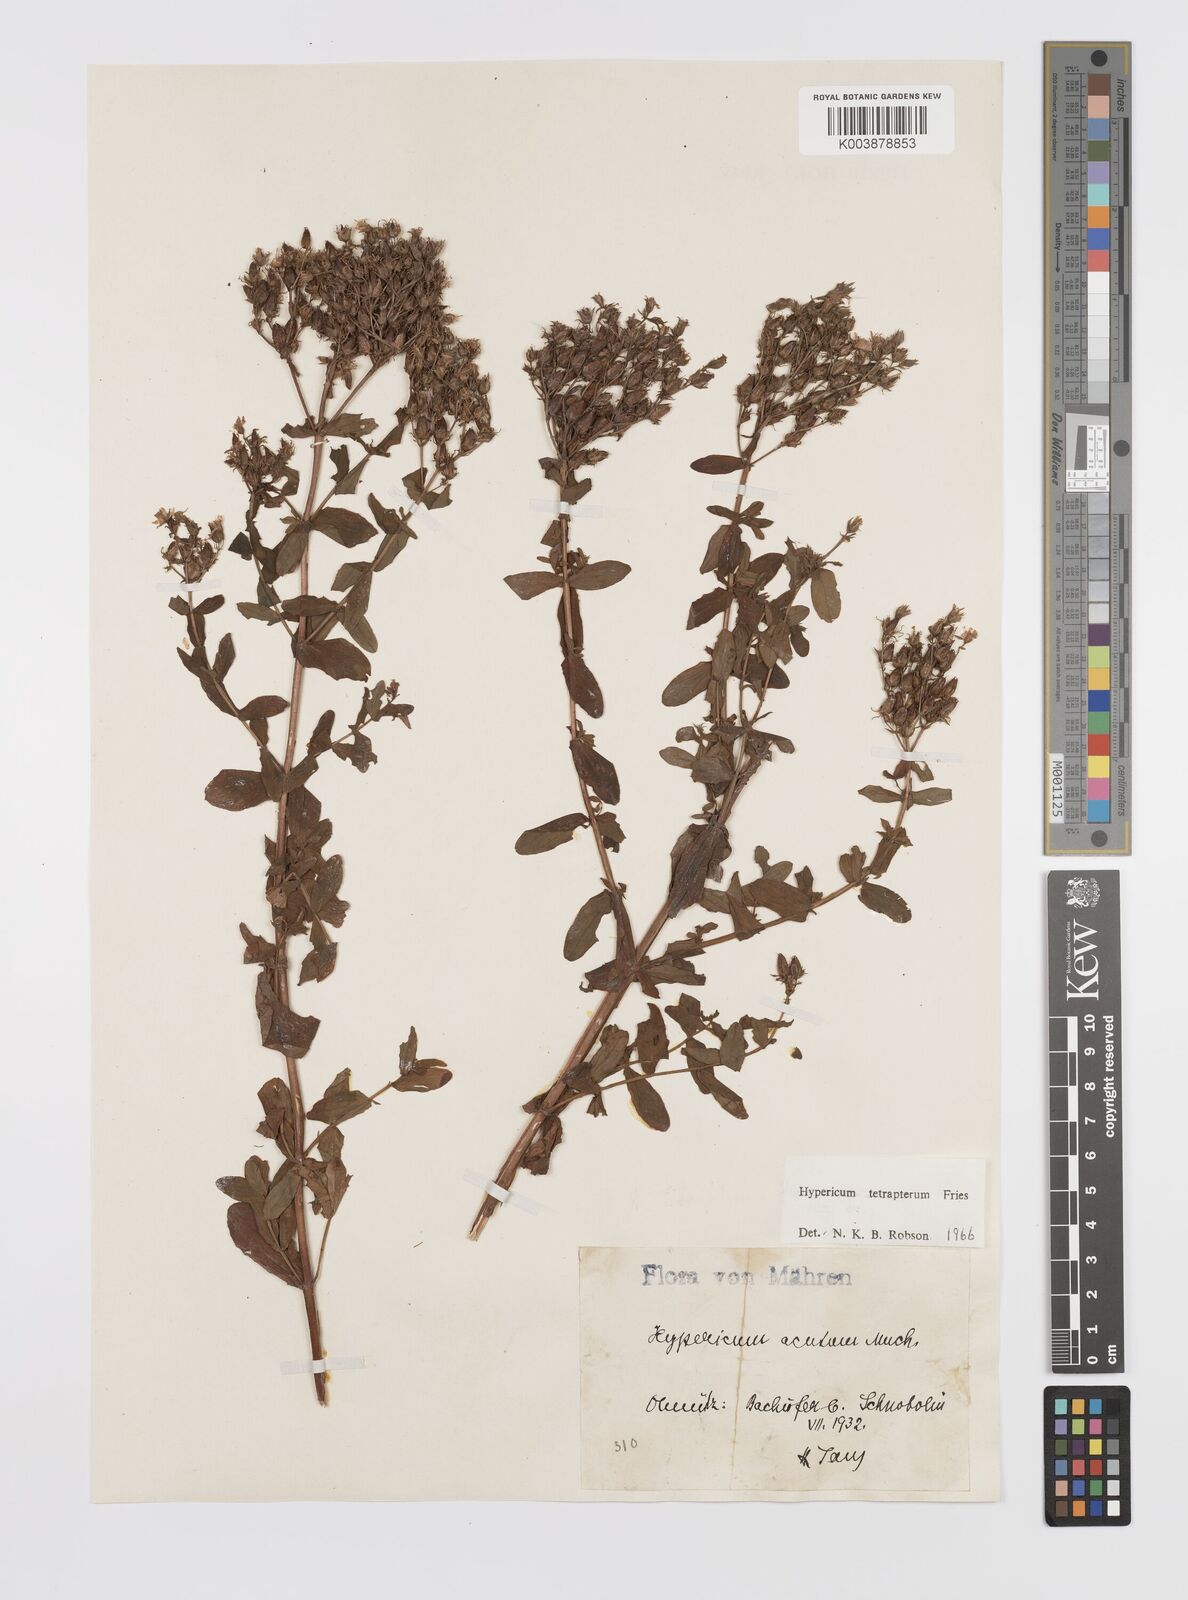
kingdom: Plantae
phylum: Tracheophyta
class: Magnoliopsida
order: Malpighiales
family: Hypericaceae
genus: Hypericum
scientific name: Hypericum tetrapterum
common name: Square-stalked st. john's-wort
